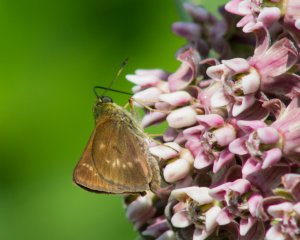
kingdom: Animalia
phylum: Arthropoda
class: Insecta
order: Lepidoptera
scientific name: Lepidoptera
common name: Butterflies
